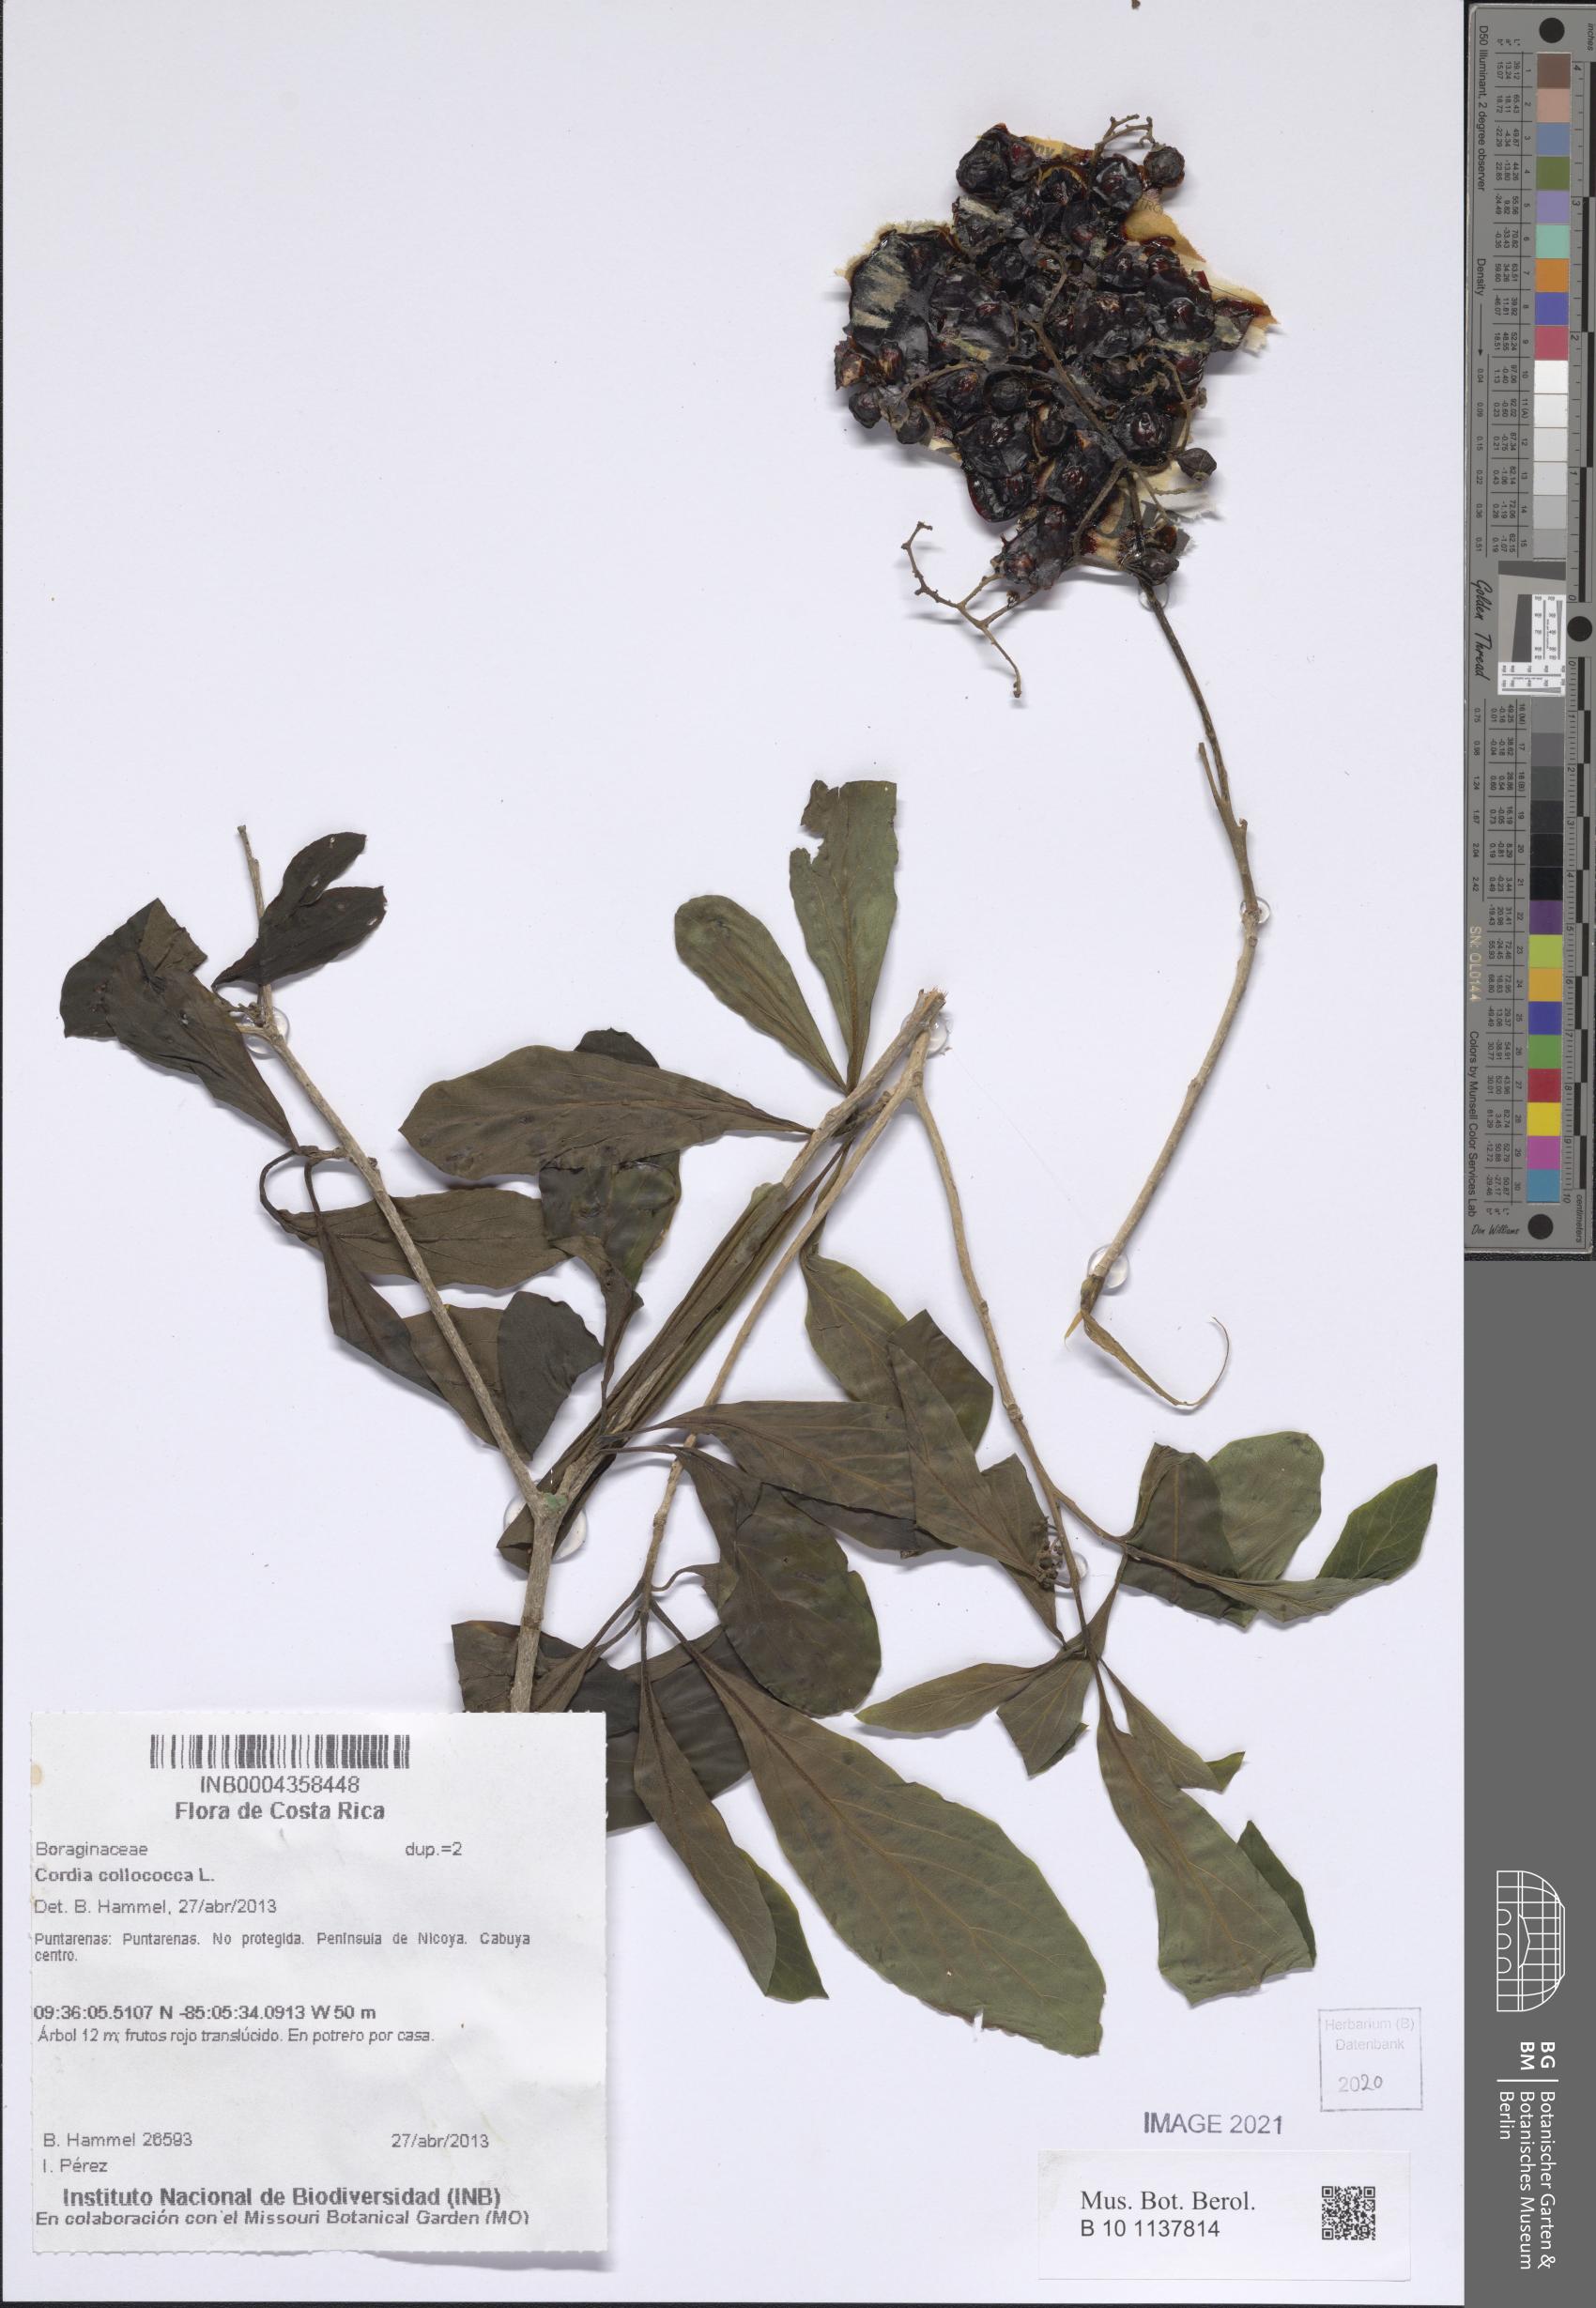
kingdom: Plantae
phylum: Tracheophyta
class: Magnoliopsida
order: Boraginales
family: Cordiaceae
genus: Cordia
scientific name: Cordia collococca
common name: Clammy cherry
